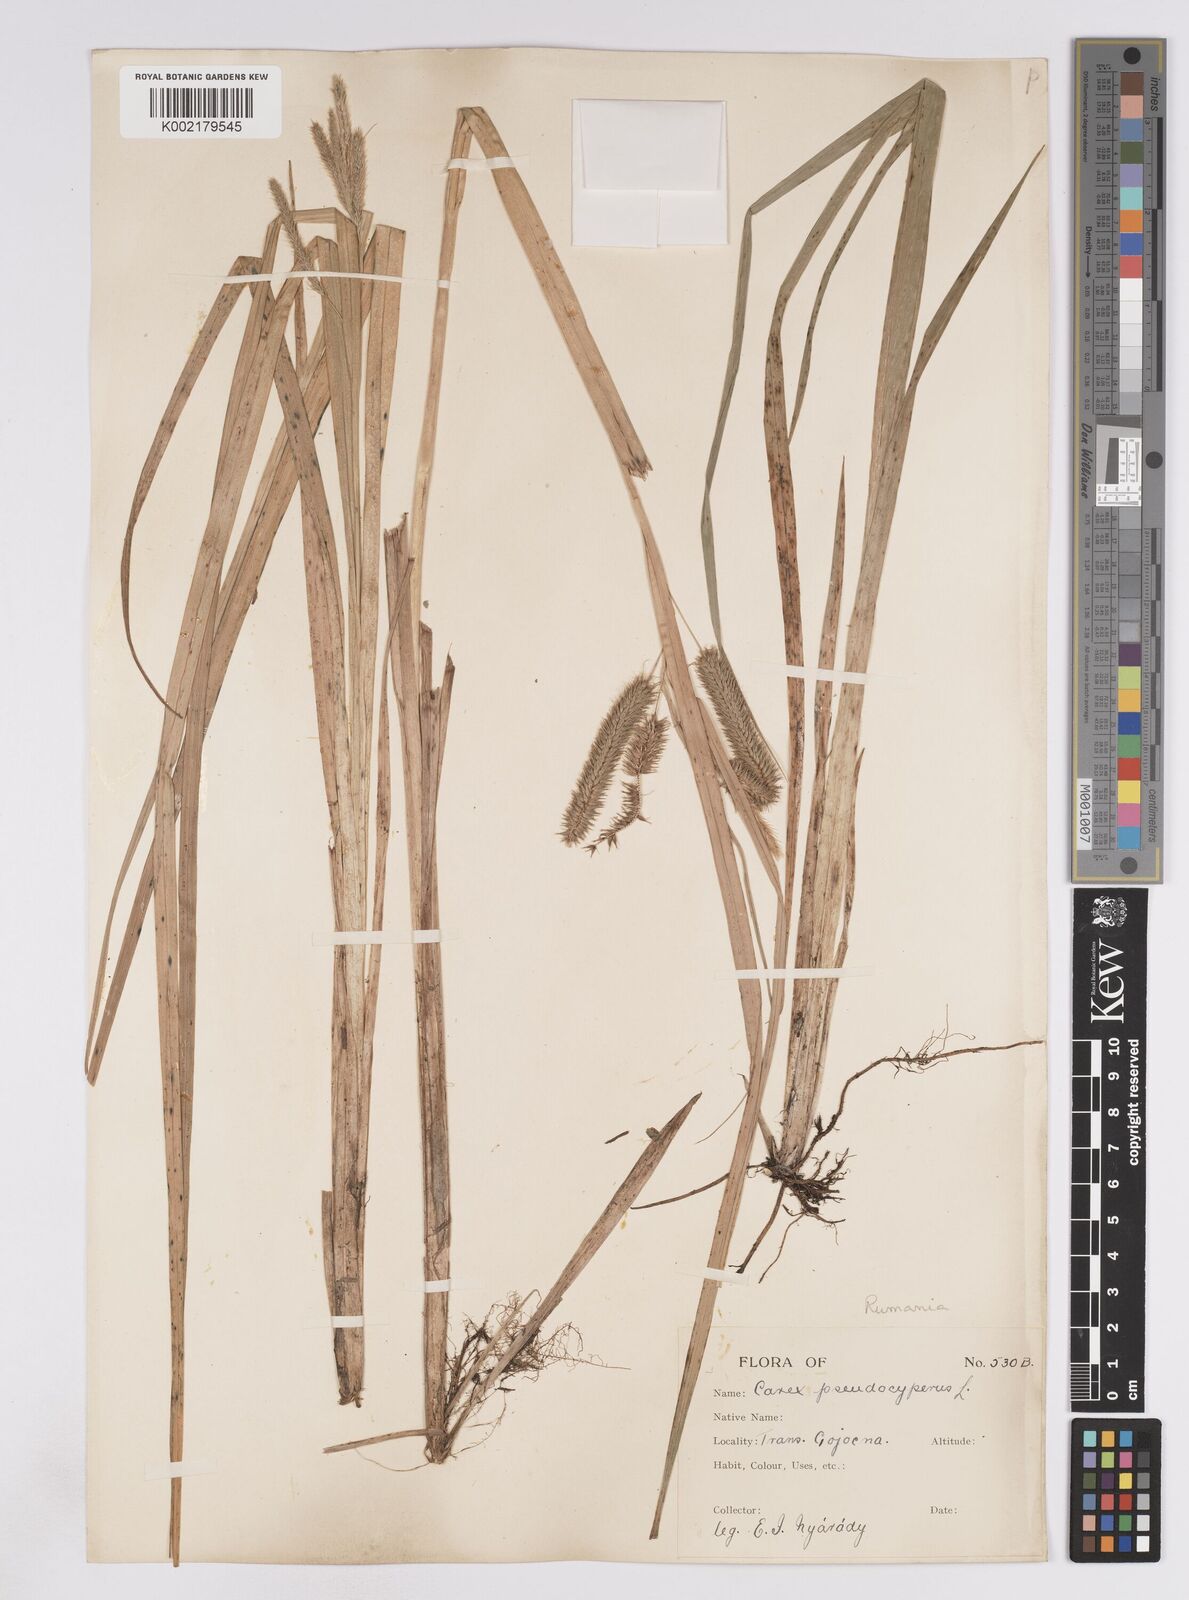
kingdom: Plantae
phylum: Tracheophyta
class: Liliopsida
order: Poales
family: Cyperaceae
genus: Carex
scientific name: Carex pseudocyperus
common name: Cyperus sedge
